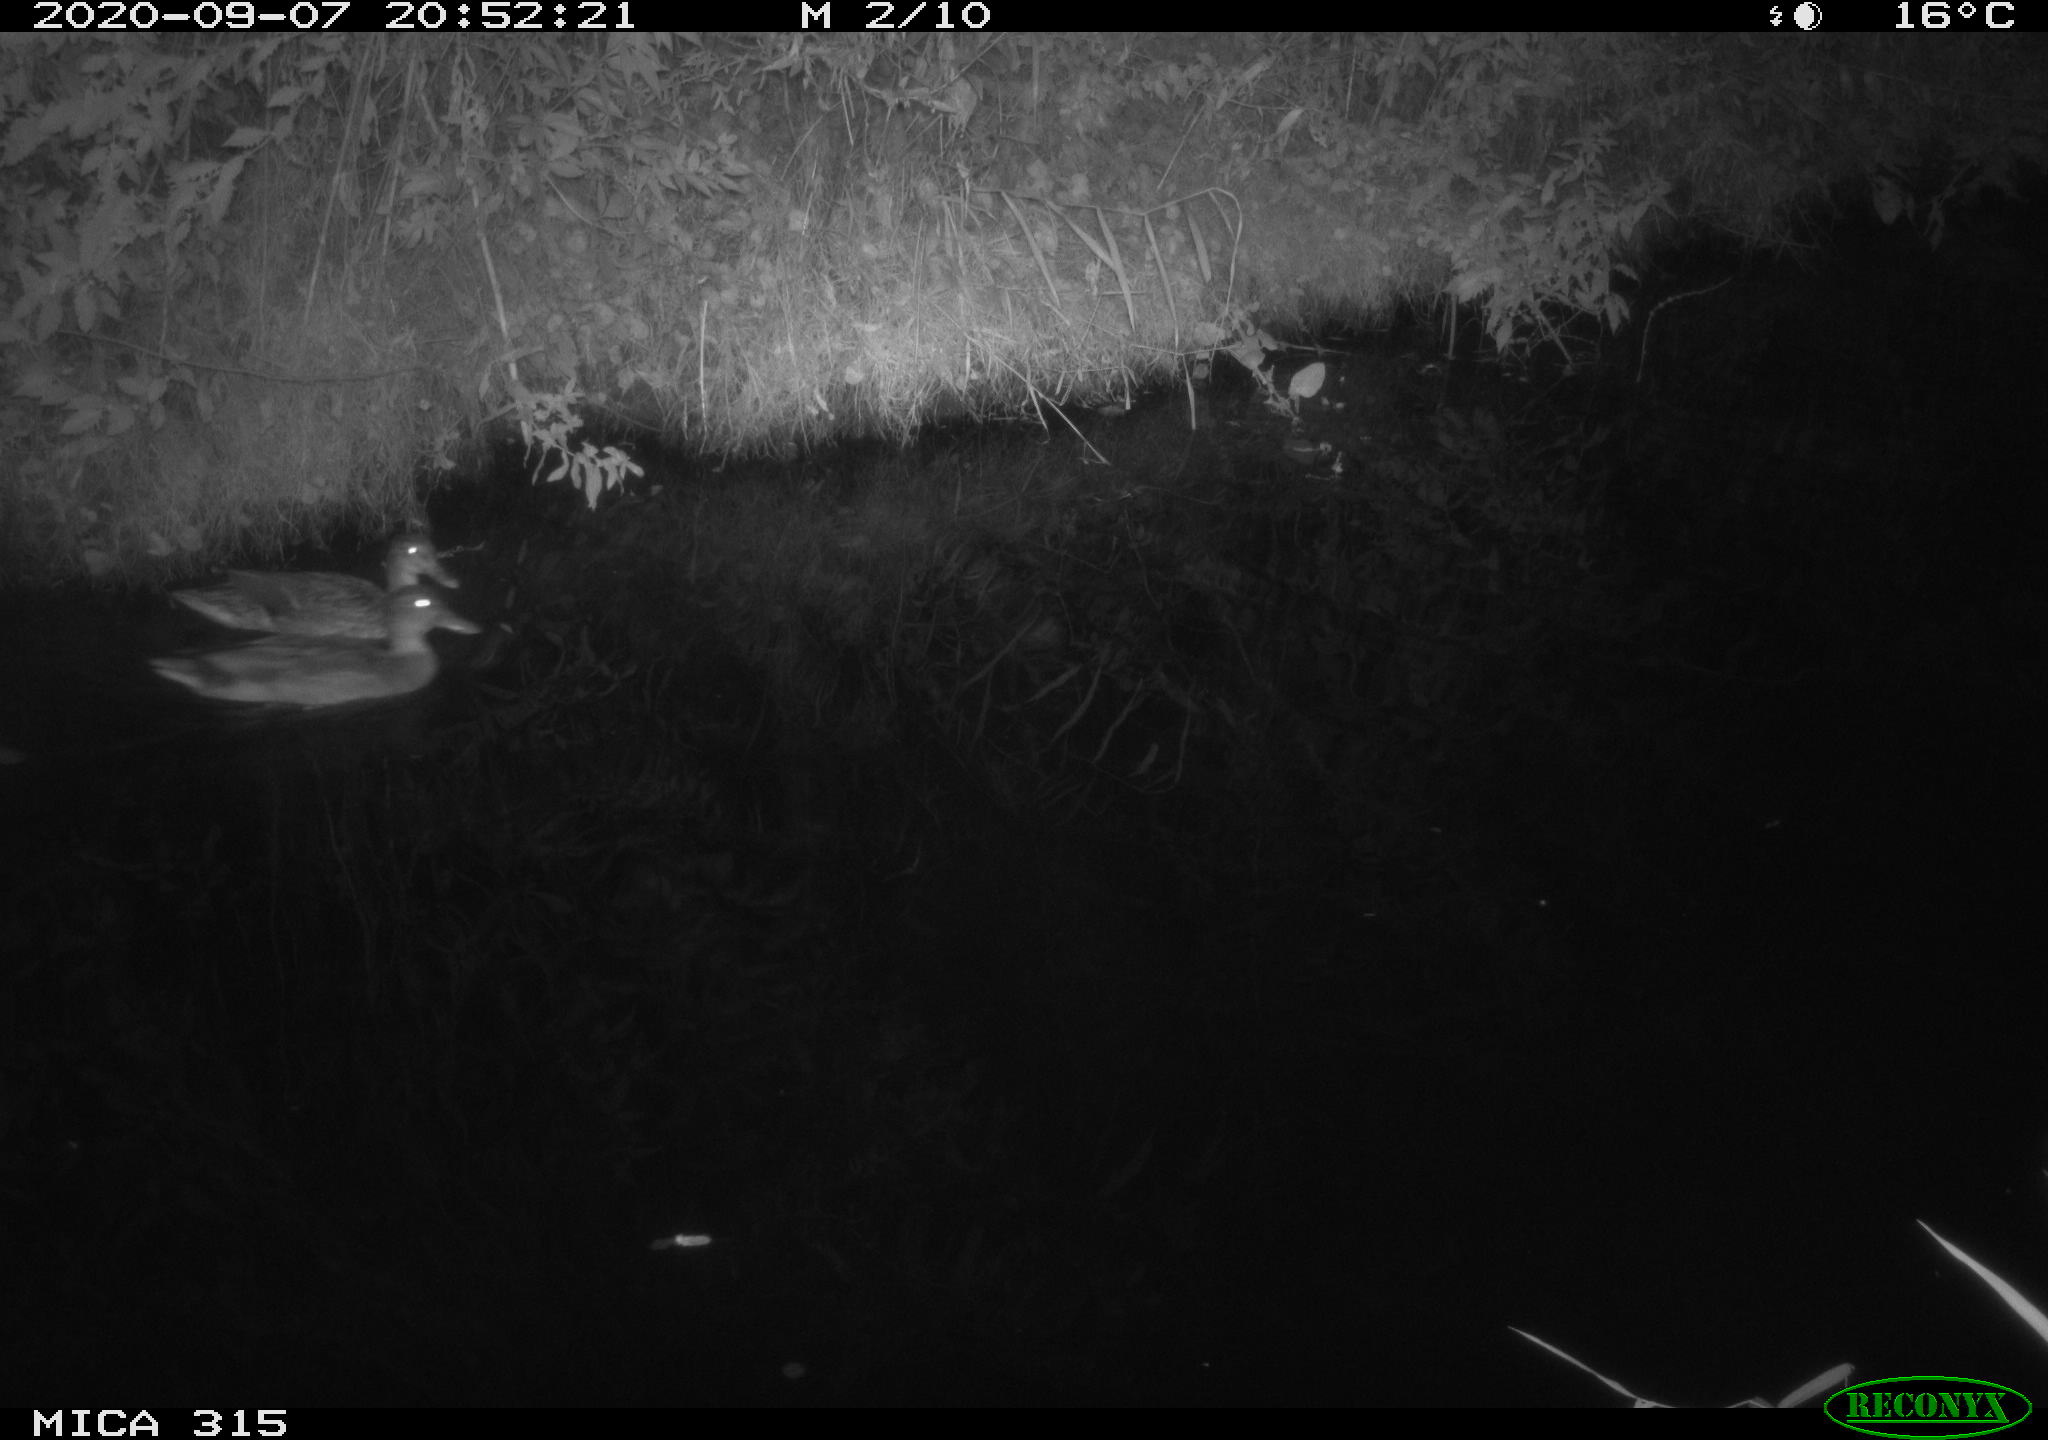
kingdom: Animalia
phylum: Chordata
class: Aves
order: Anseriformes
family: Anatidae
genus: Anas
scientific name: Anas platyrhynchos
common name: Mallard
